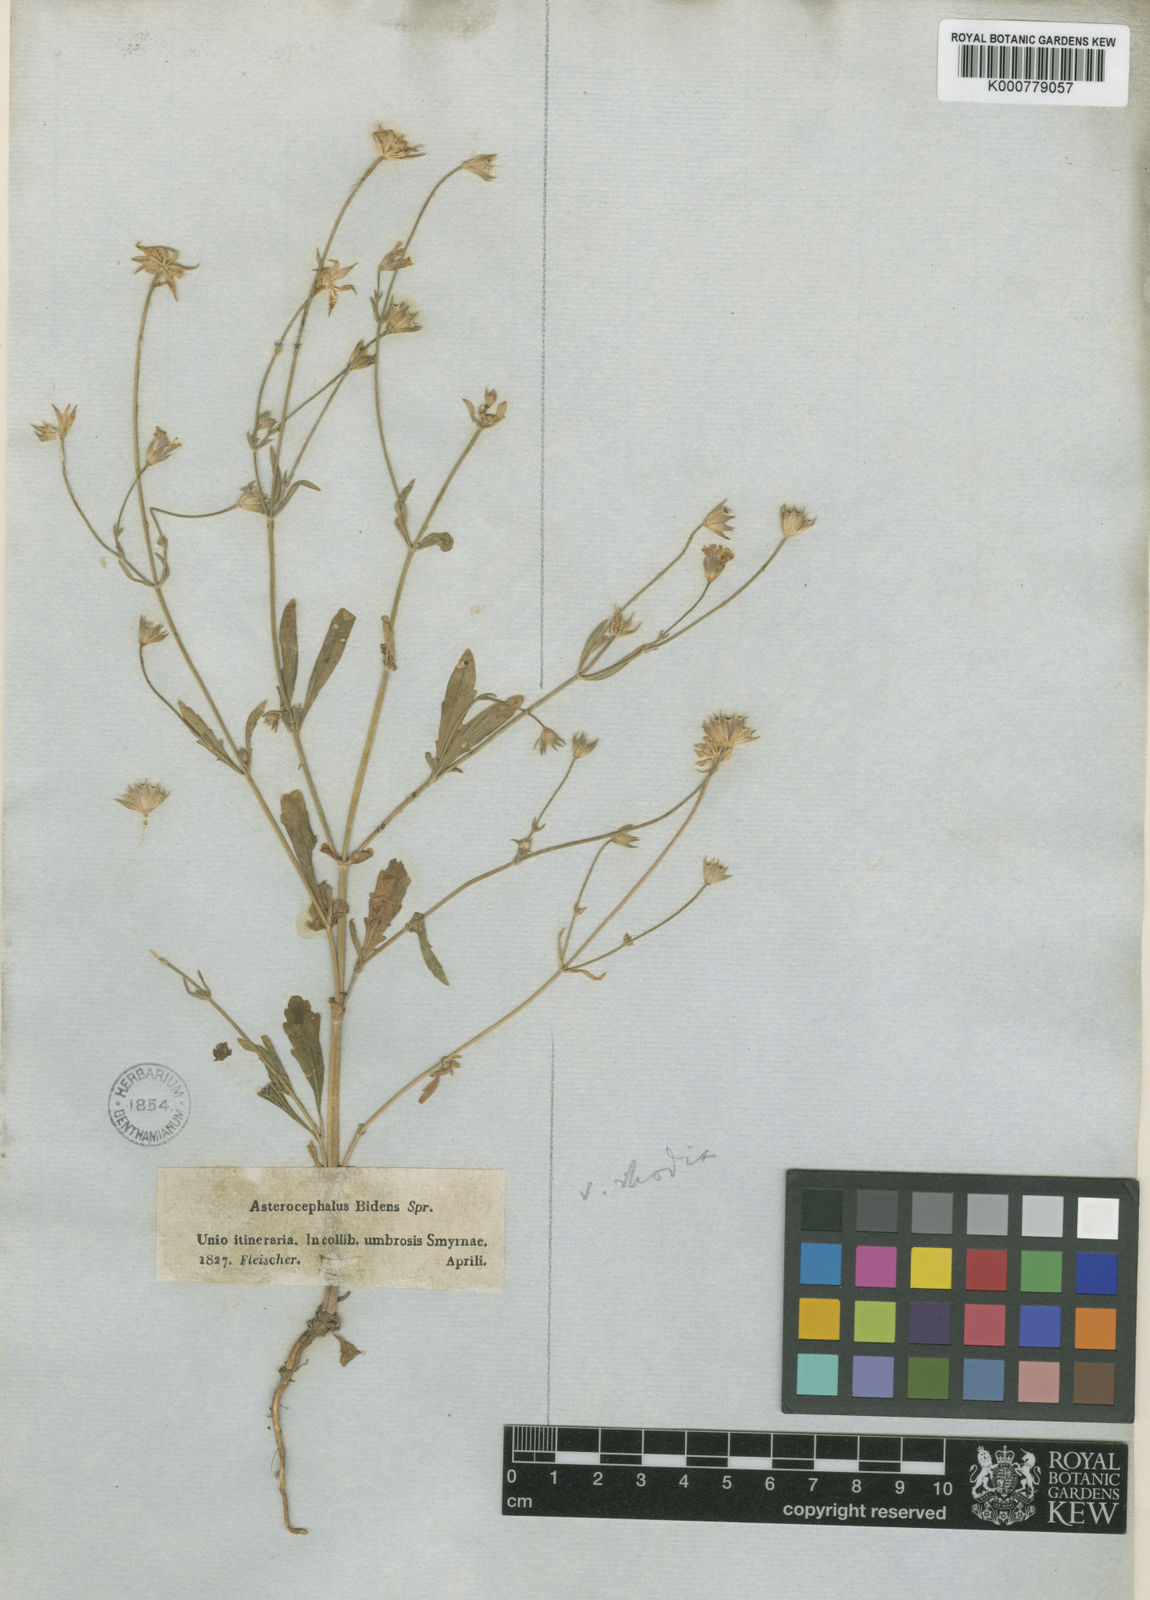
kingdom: Plantae
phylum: Tracheophyta
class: Magnoliopsida
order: Dipsacales
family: Caprifoliaceae
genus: Knautia
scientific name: Knautia
